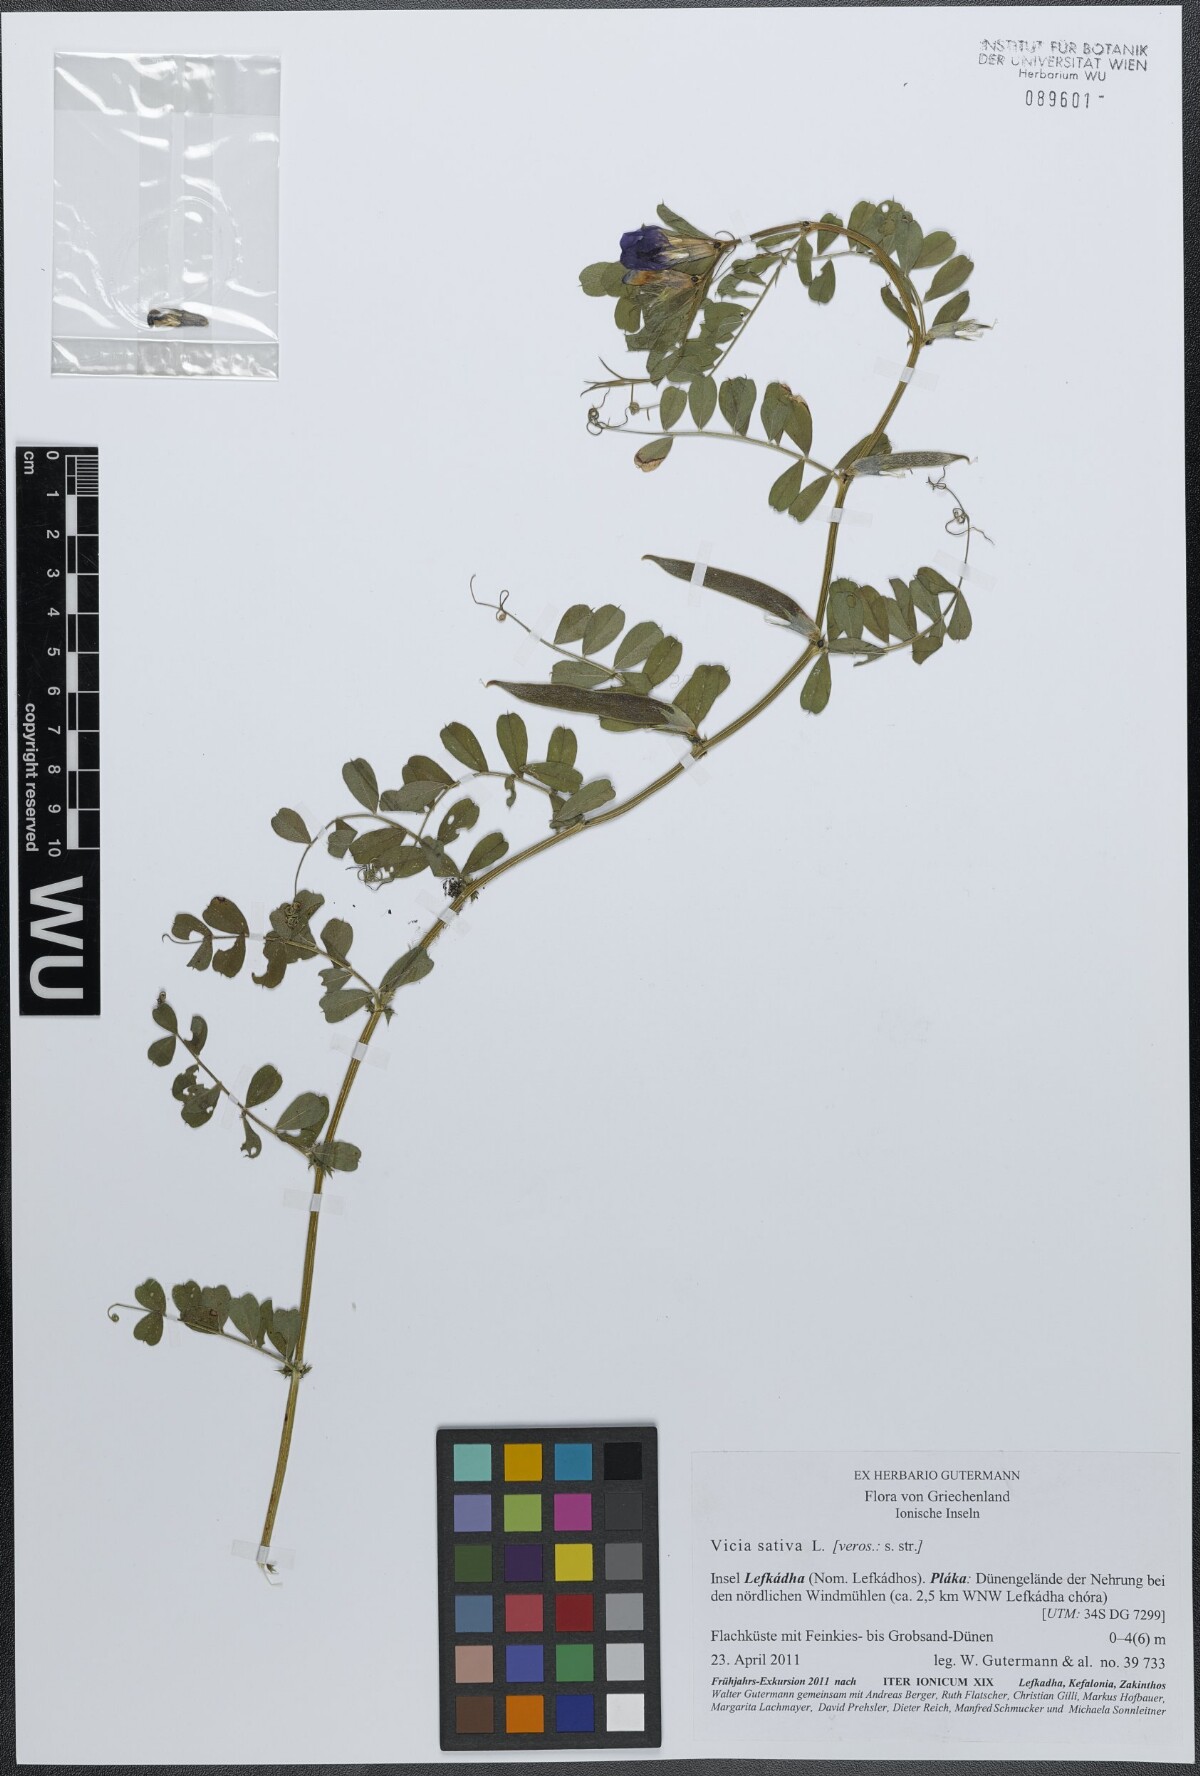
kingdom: Plantae
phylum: Tracheophyta
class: Magnoliopsida
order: Fabales
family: Fabaceae
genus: Vicia
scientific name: Vicia sativa
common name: Garden vetch
